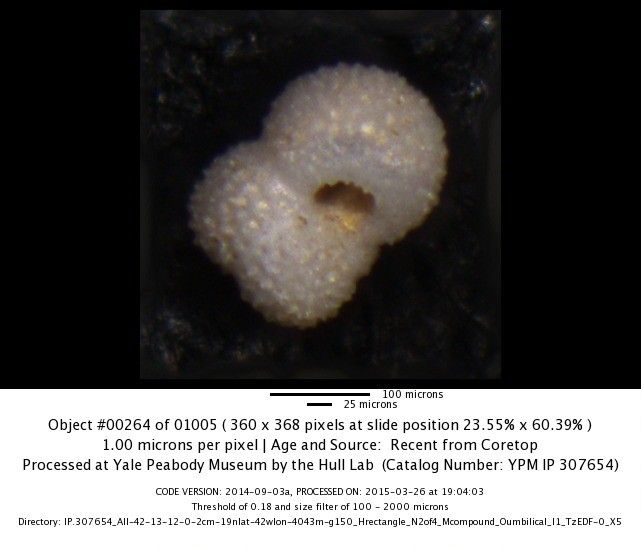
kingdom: Chromista
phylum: Foraminifera
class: Globothalamea
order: Rotaliida
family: Globigerinidae
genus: Globigerinoides
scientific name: Globigerinoides ruber
